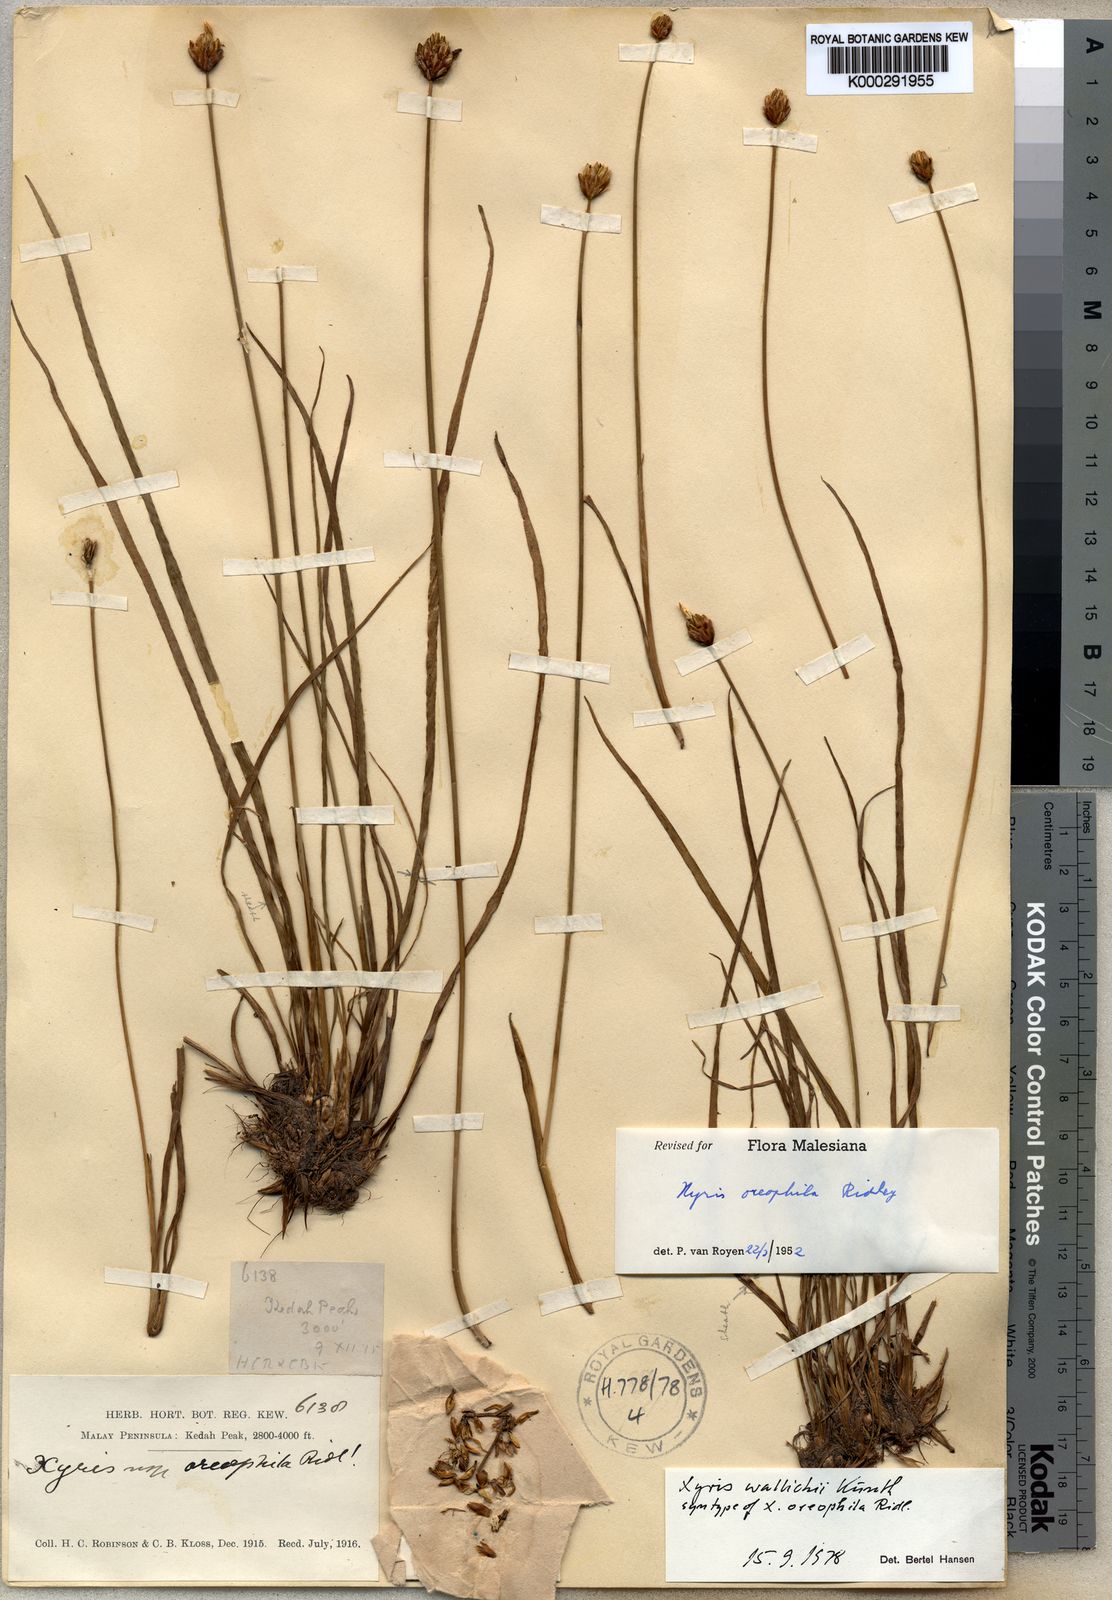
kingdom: Plantae
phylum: Tracheophyta
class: Liliopsida
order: Poales
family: Xyridaceae
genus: Xyris
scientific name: Xyris wallichii
